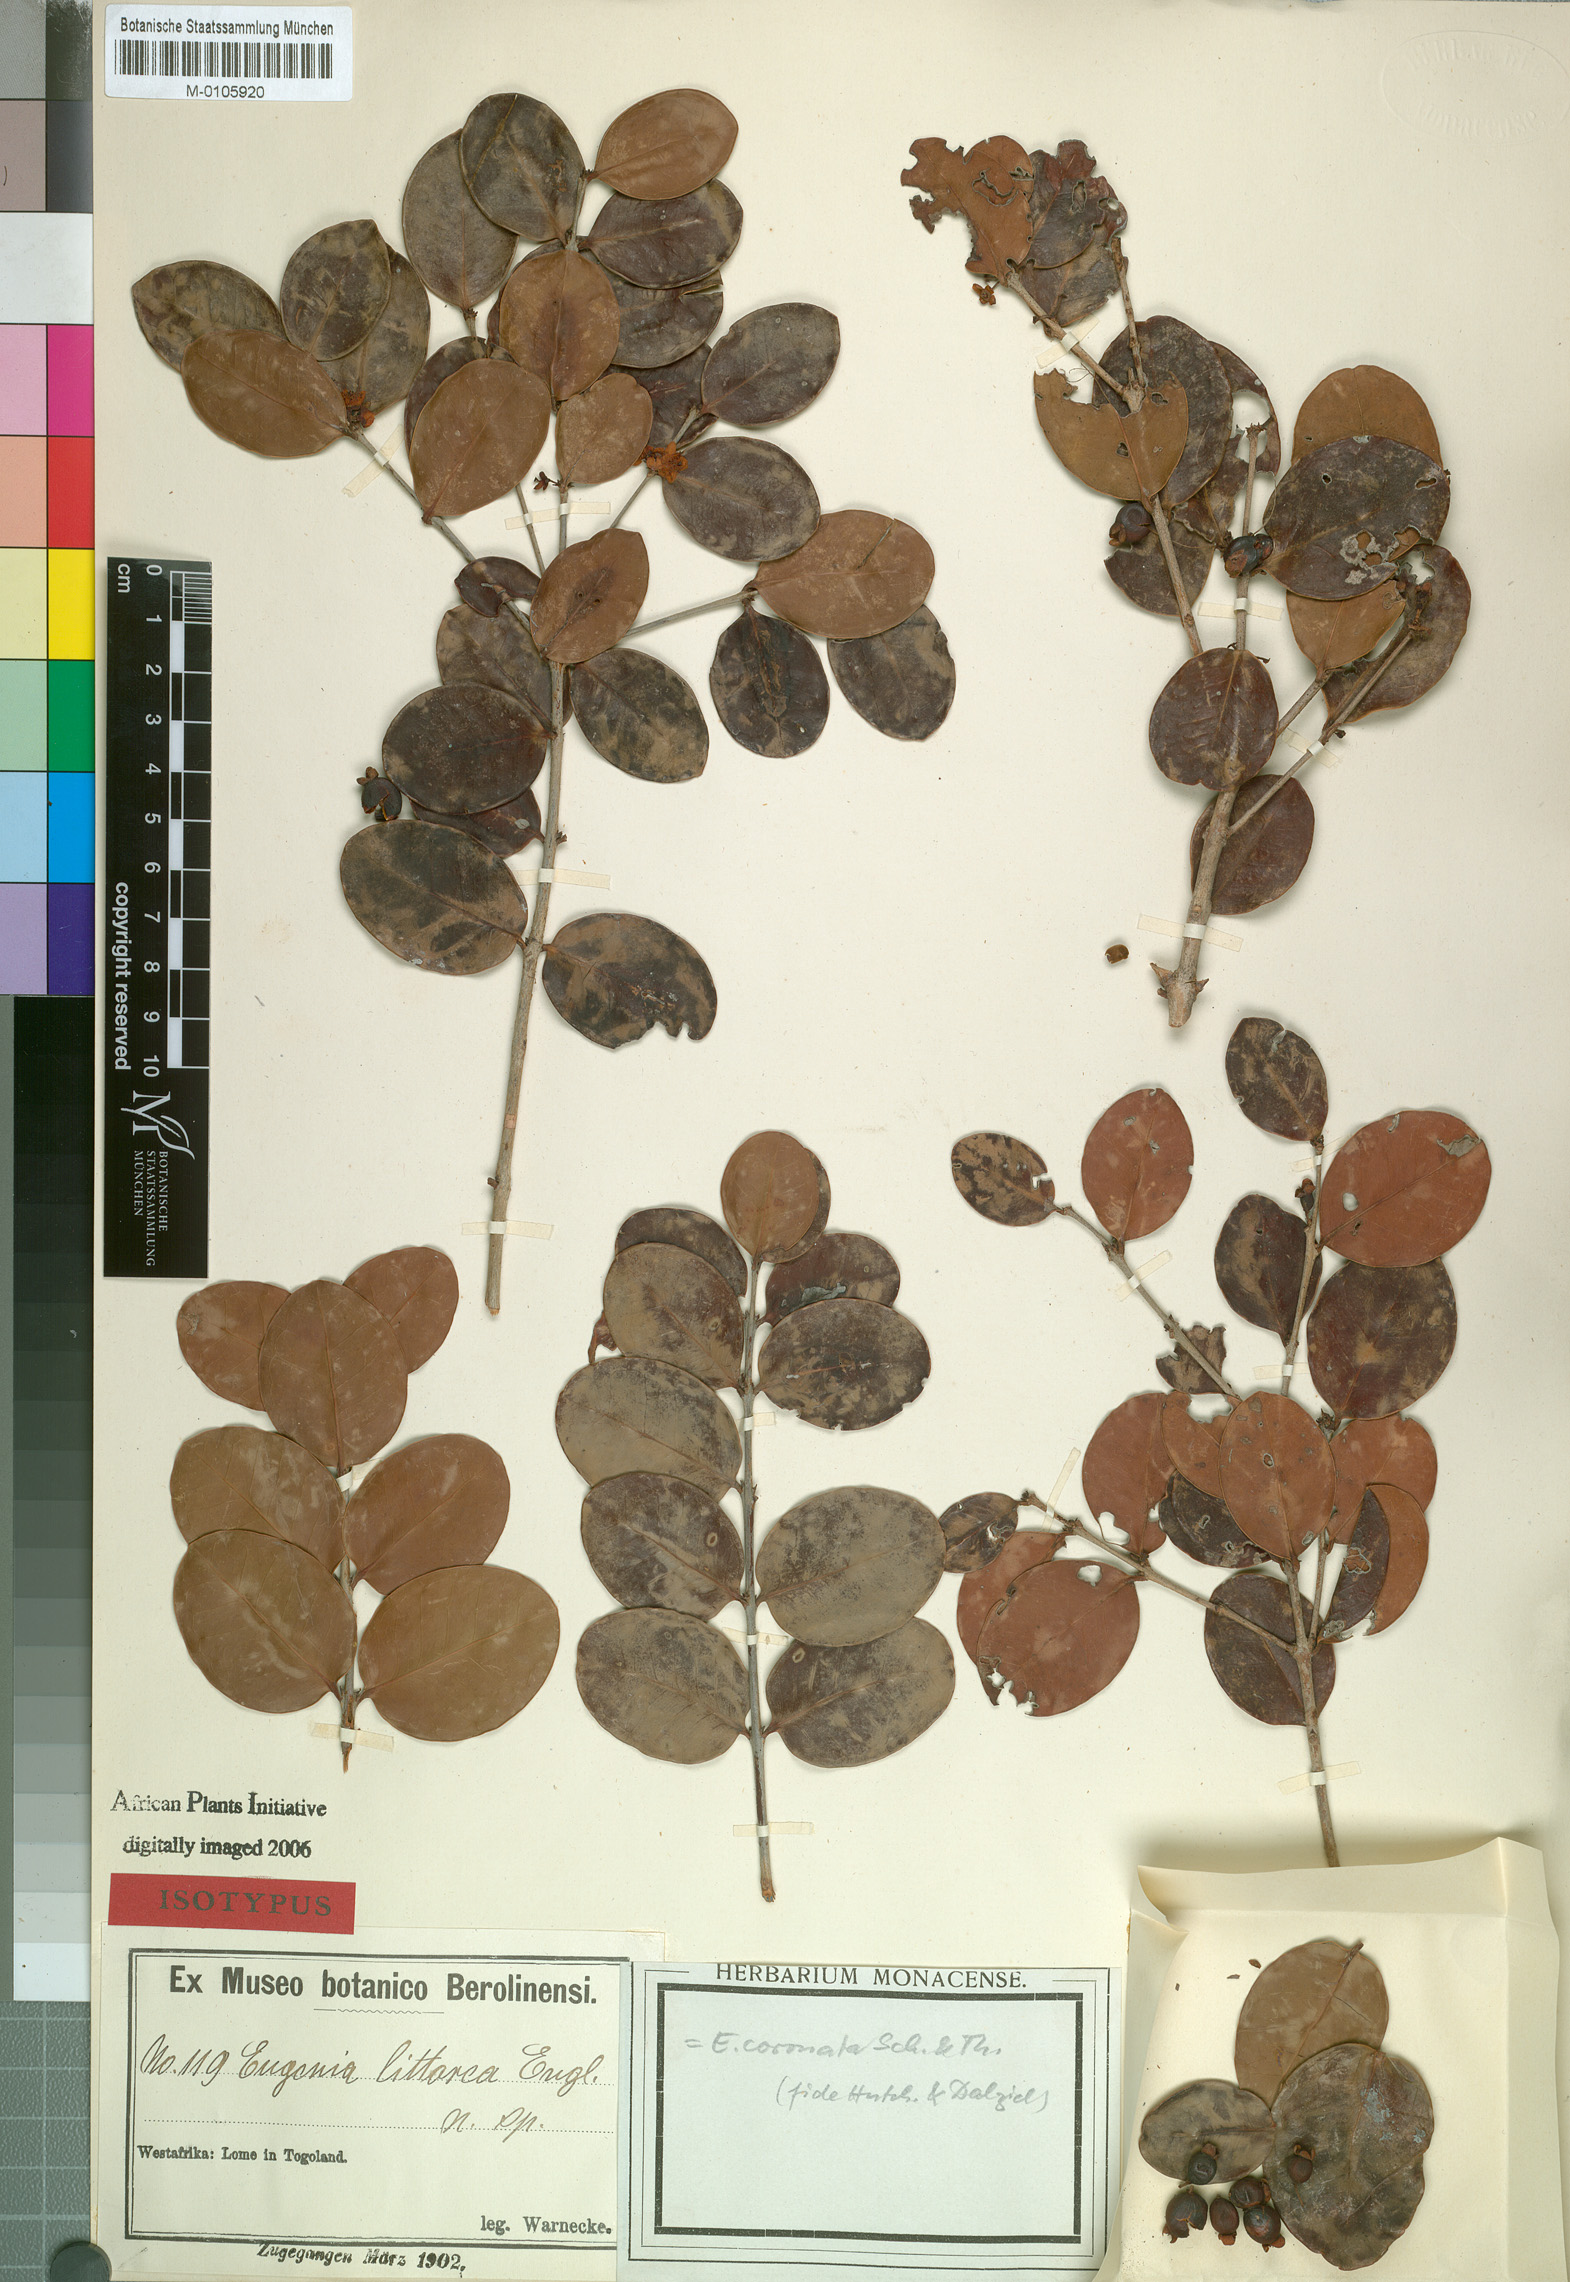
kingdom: Plantae
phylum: Tracheophyta
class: Magnoliopsida
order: Myrtales
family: Myrtaceae
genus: Eugenia
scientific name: Eugenia coronata
